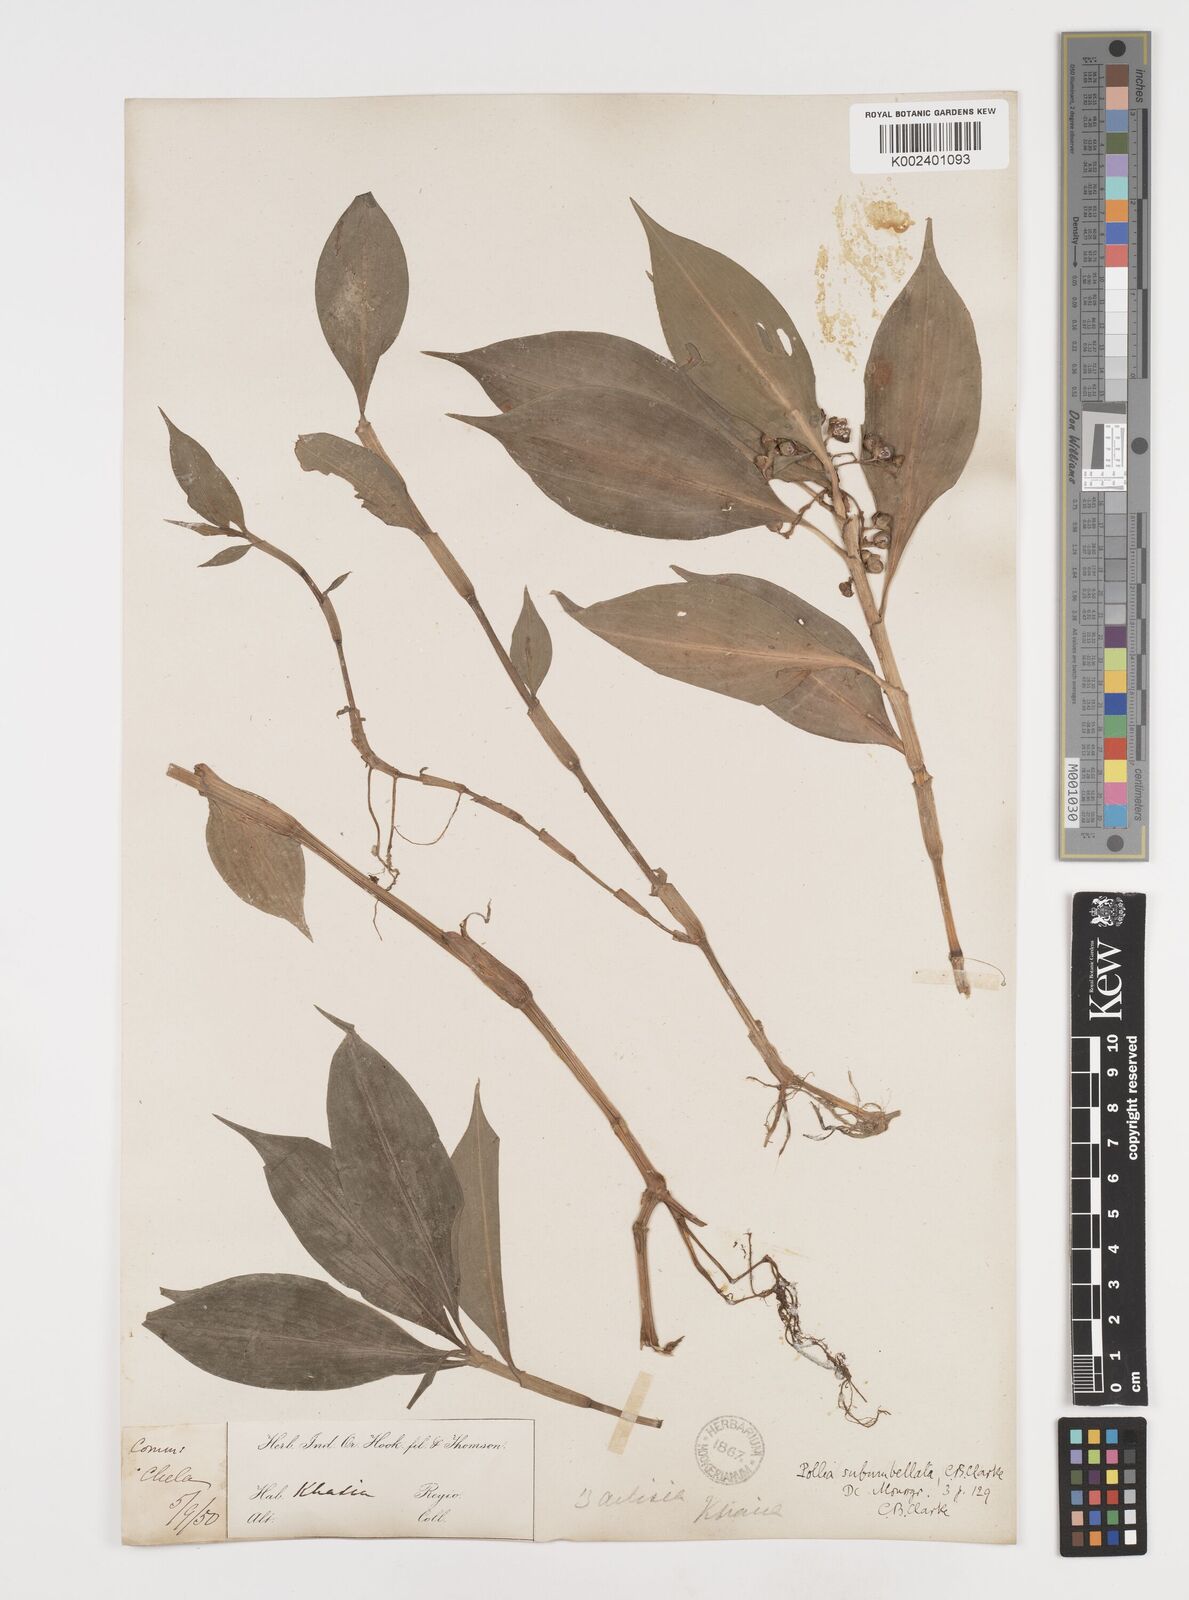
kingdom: Plantae
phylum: Tracheophyta
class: Liliopsida
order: Commelinales
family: Commelinaceae
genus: Pollia
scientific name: Pollia subumbellata
